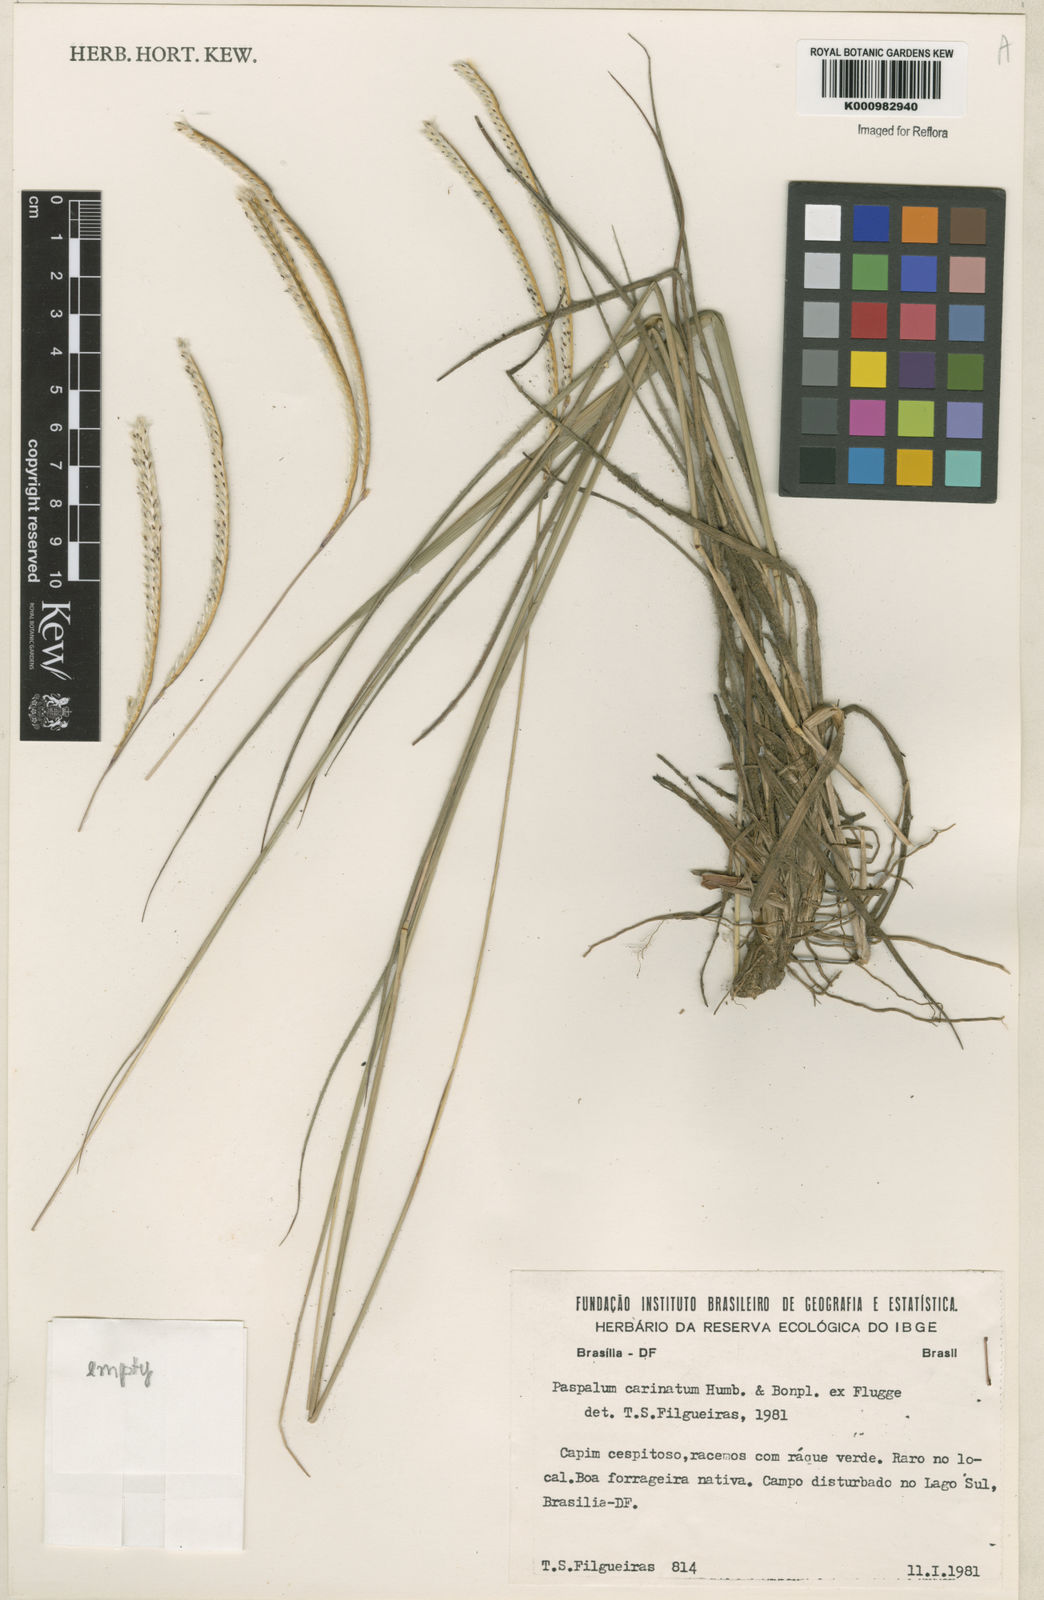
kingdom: Plantae
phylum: Tracheophyta
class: Liliopsida
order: Poales
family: Poaceae
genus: Paspalum
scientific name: Paspalum
